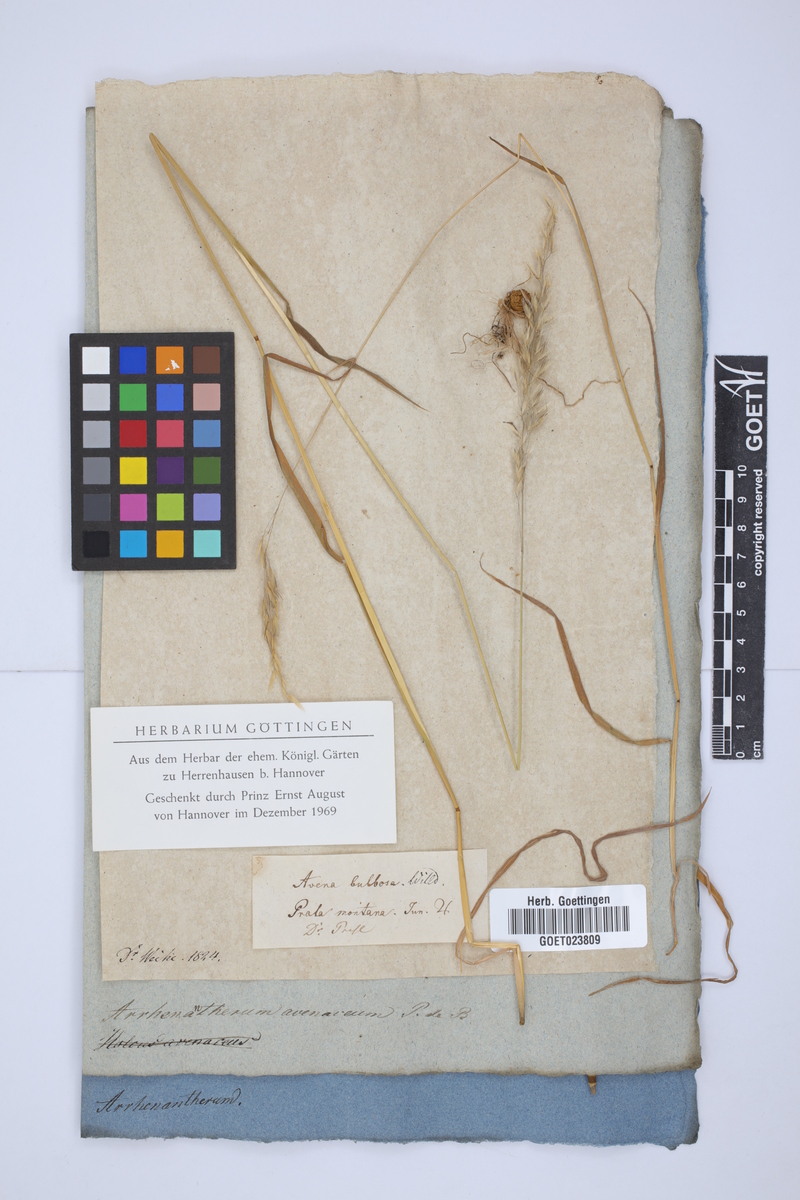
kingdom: Plantae
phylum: Tracheophyta
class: Liliopsida
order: Poales
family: Poaceae
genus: Arrhenatherum
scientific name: Arrhenatherum elatius
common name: Tall oatgrass
